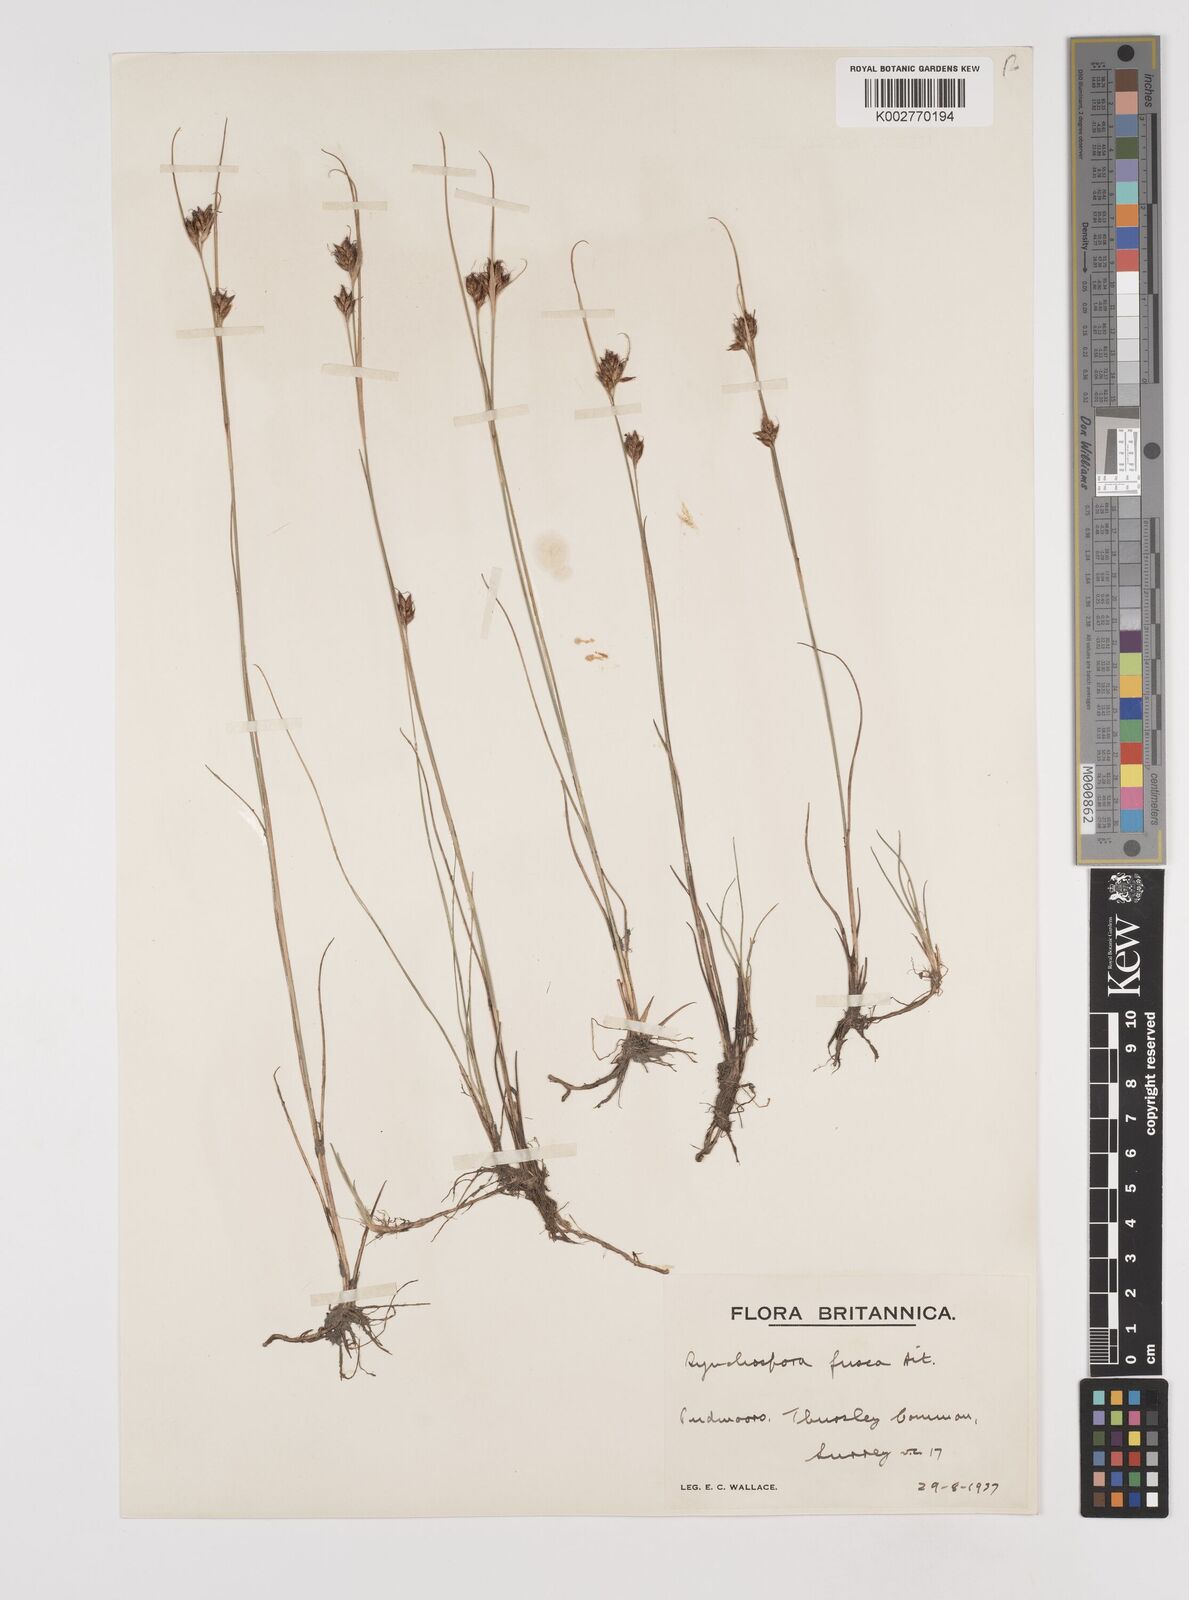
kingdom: Plantae
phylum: Tracheophyta
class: Liliopsida
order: Poales
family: Cyperaceae
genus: Rhynchospora
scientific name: Rhynchospora fusca
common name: Brown beak-sedge
